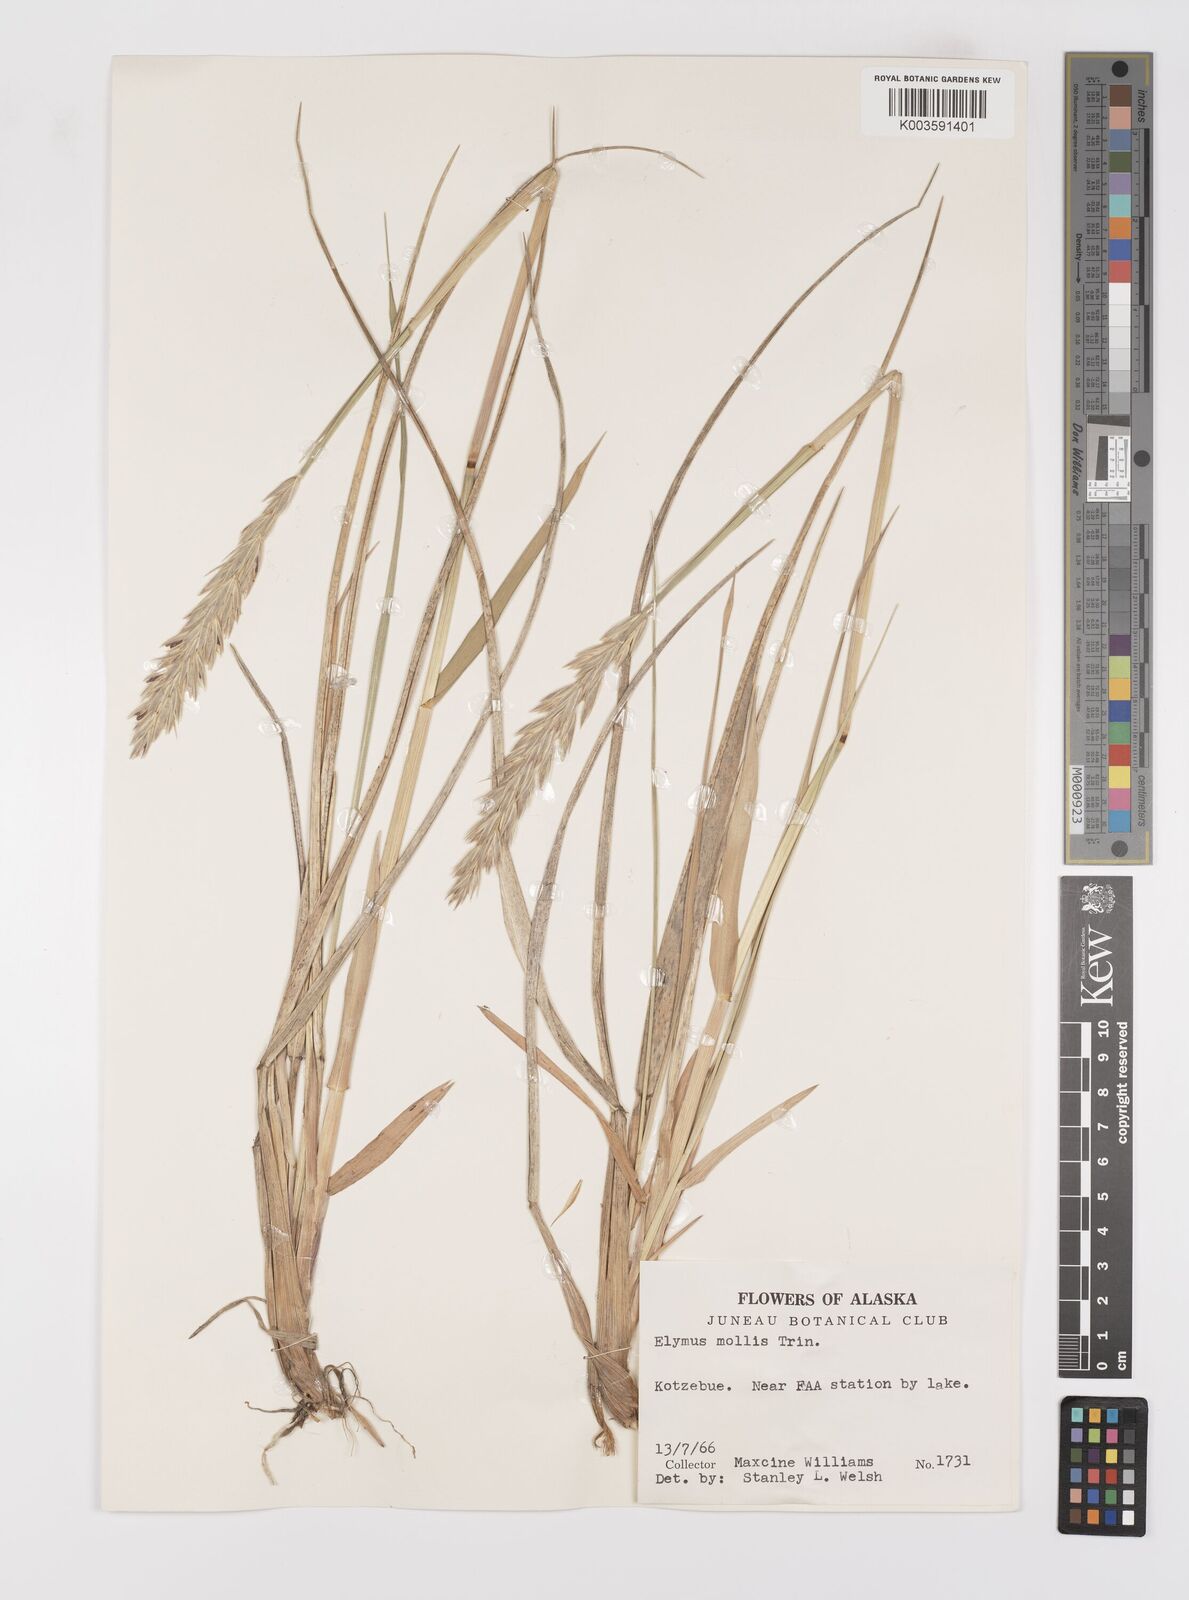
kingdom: Plantae
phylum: Tracheophyta
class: Liliopsida
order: Poales
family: Poaceae
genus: Leymus
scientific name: Leymus mollis
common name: American dune grass
